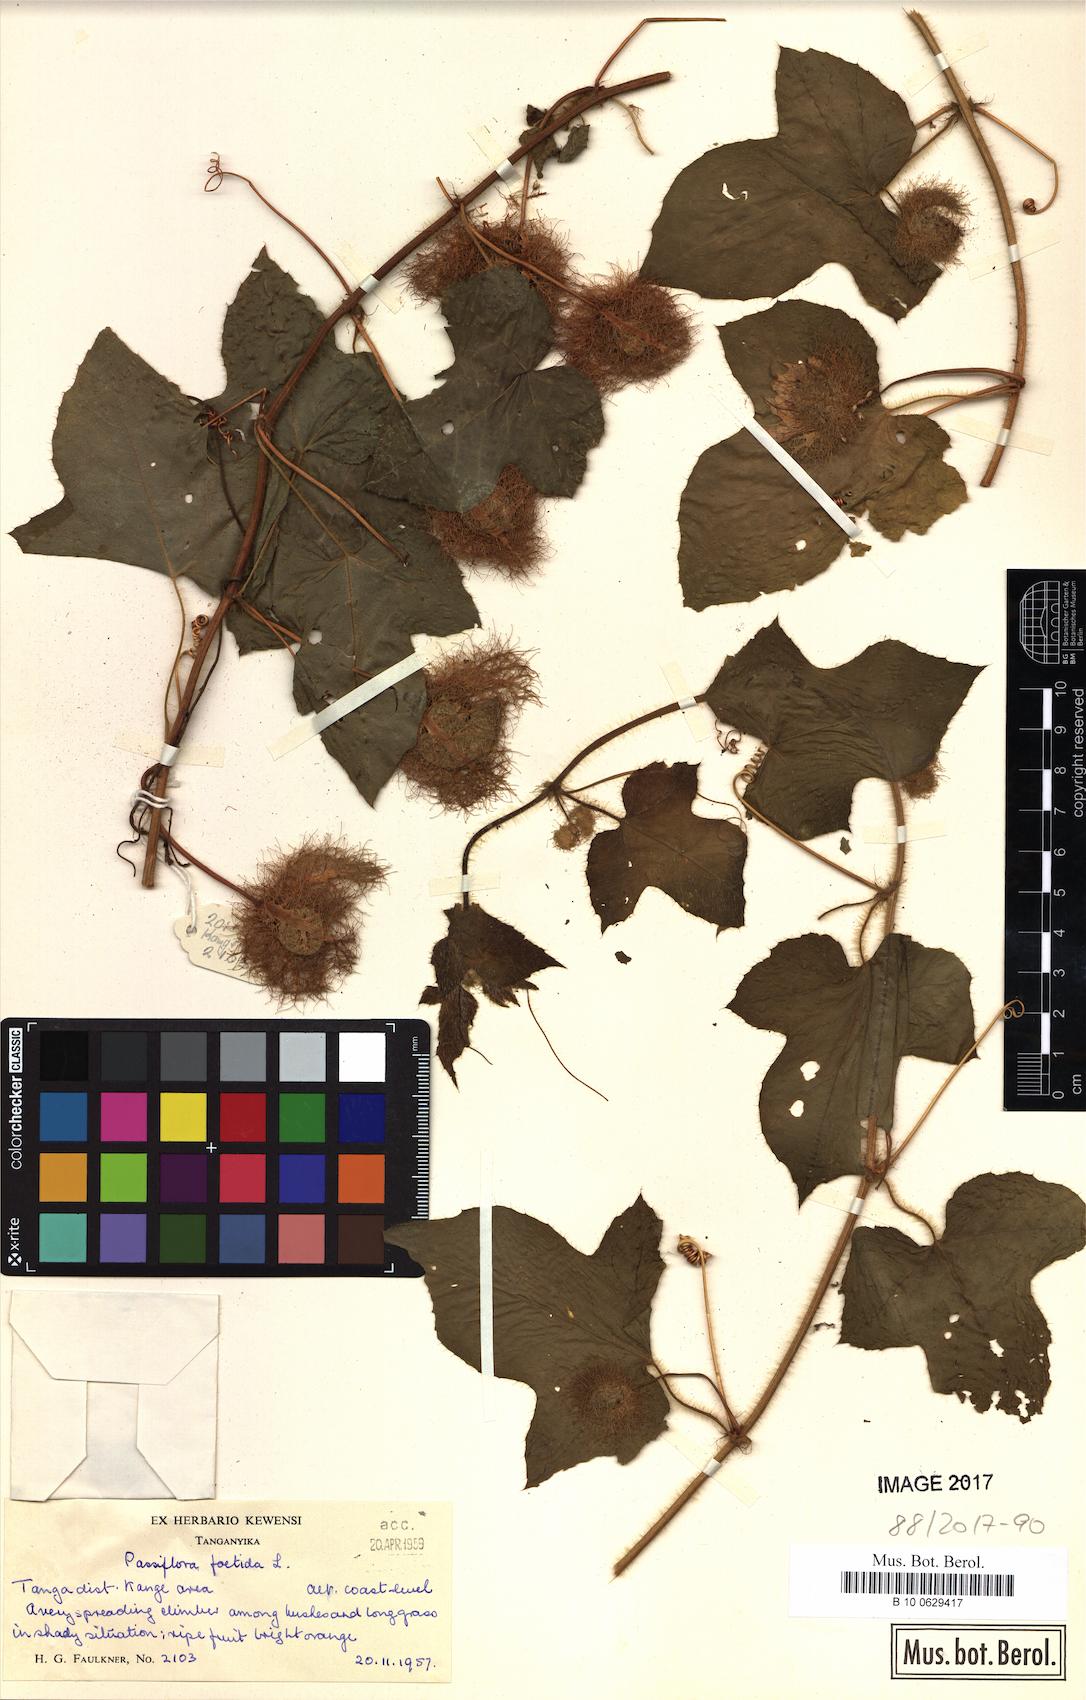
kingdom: Plantae
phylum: Tracheophyta
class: Magnoliopsida
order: Malpighiales
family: Passifloraceae
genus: Passiflora
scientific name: Passiflora foetida
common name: Fetid passionflower
